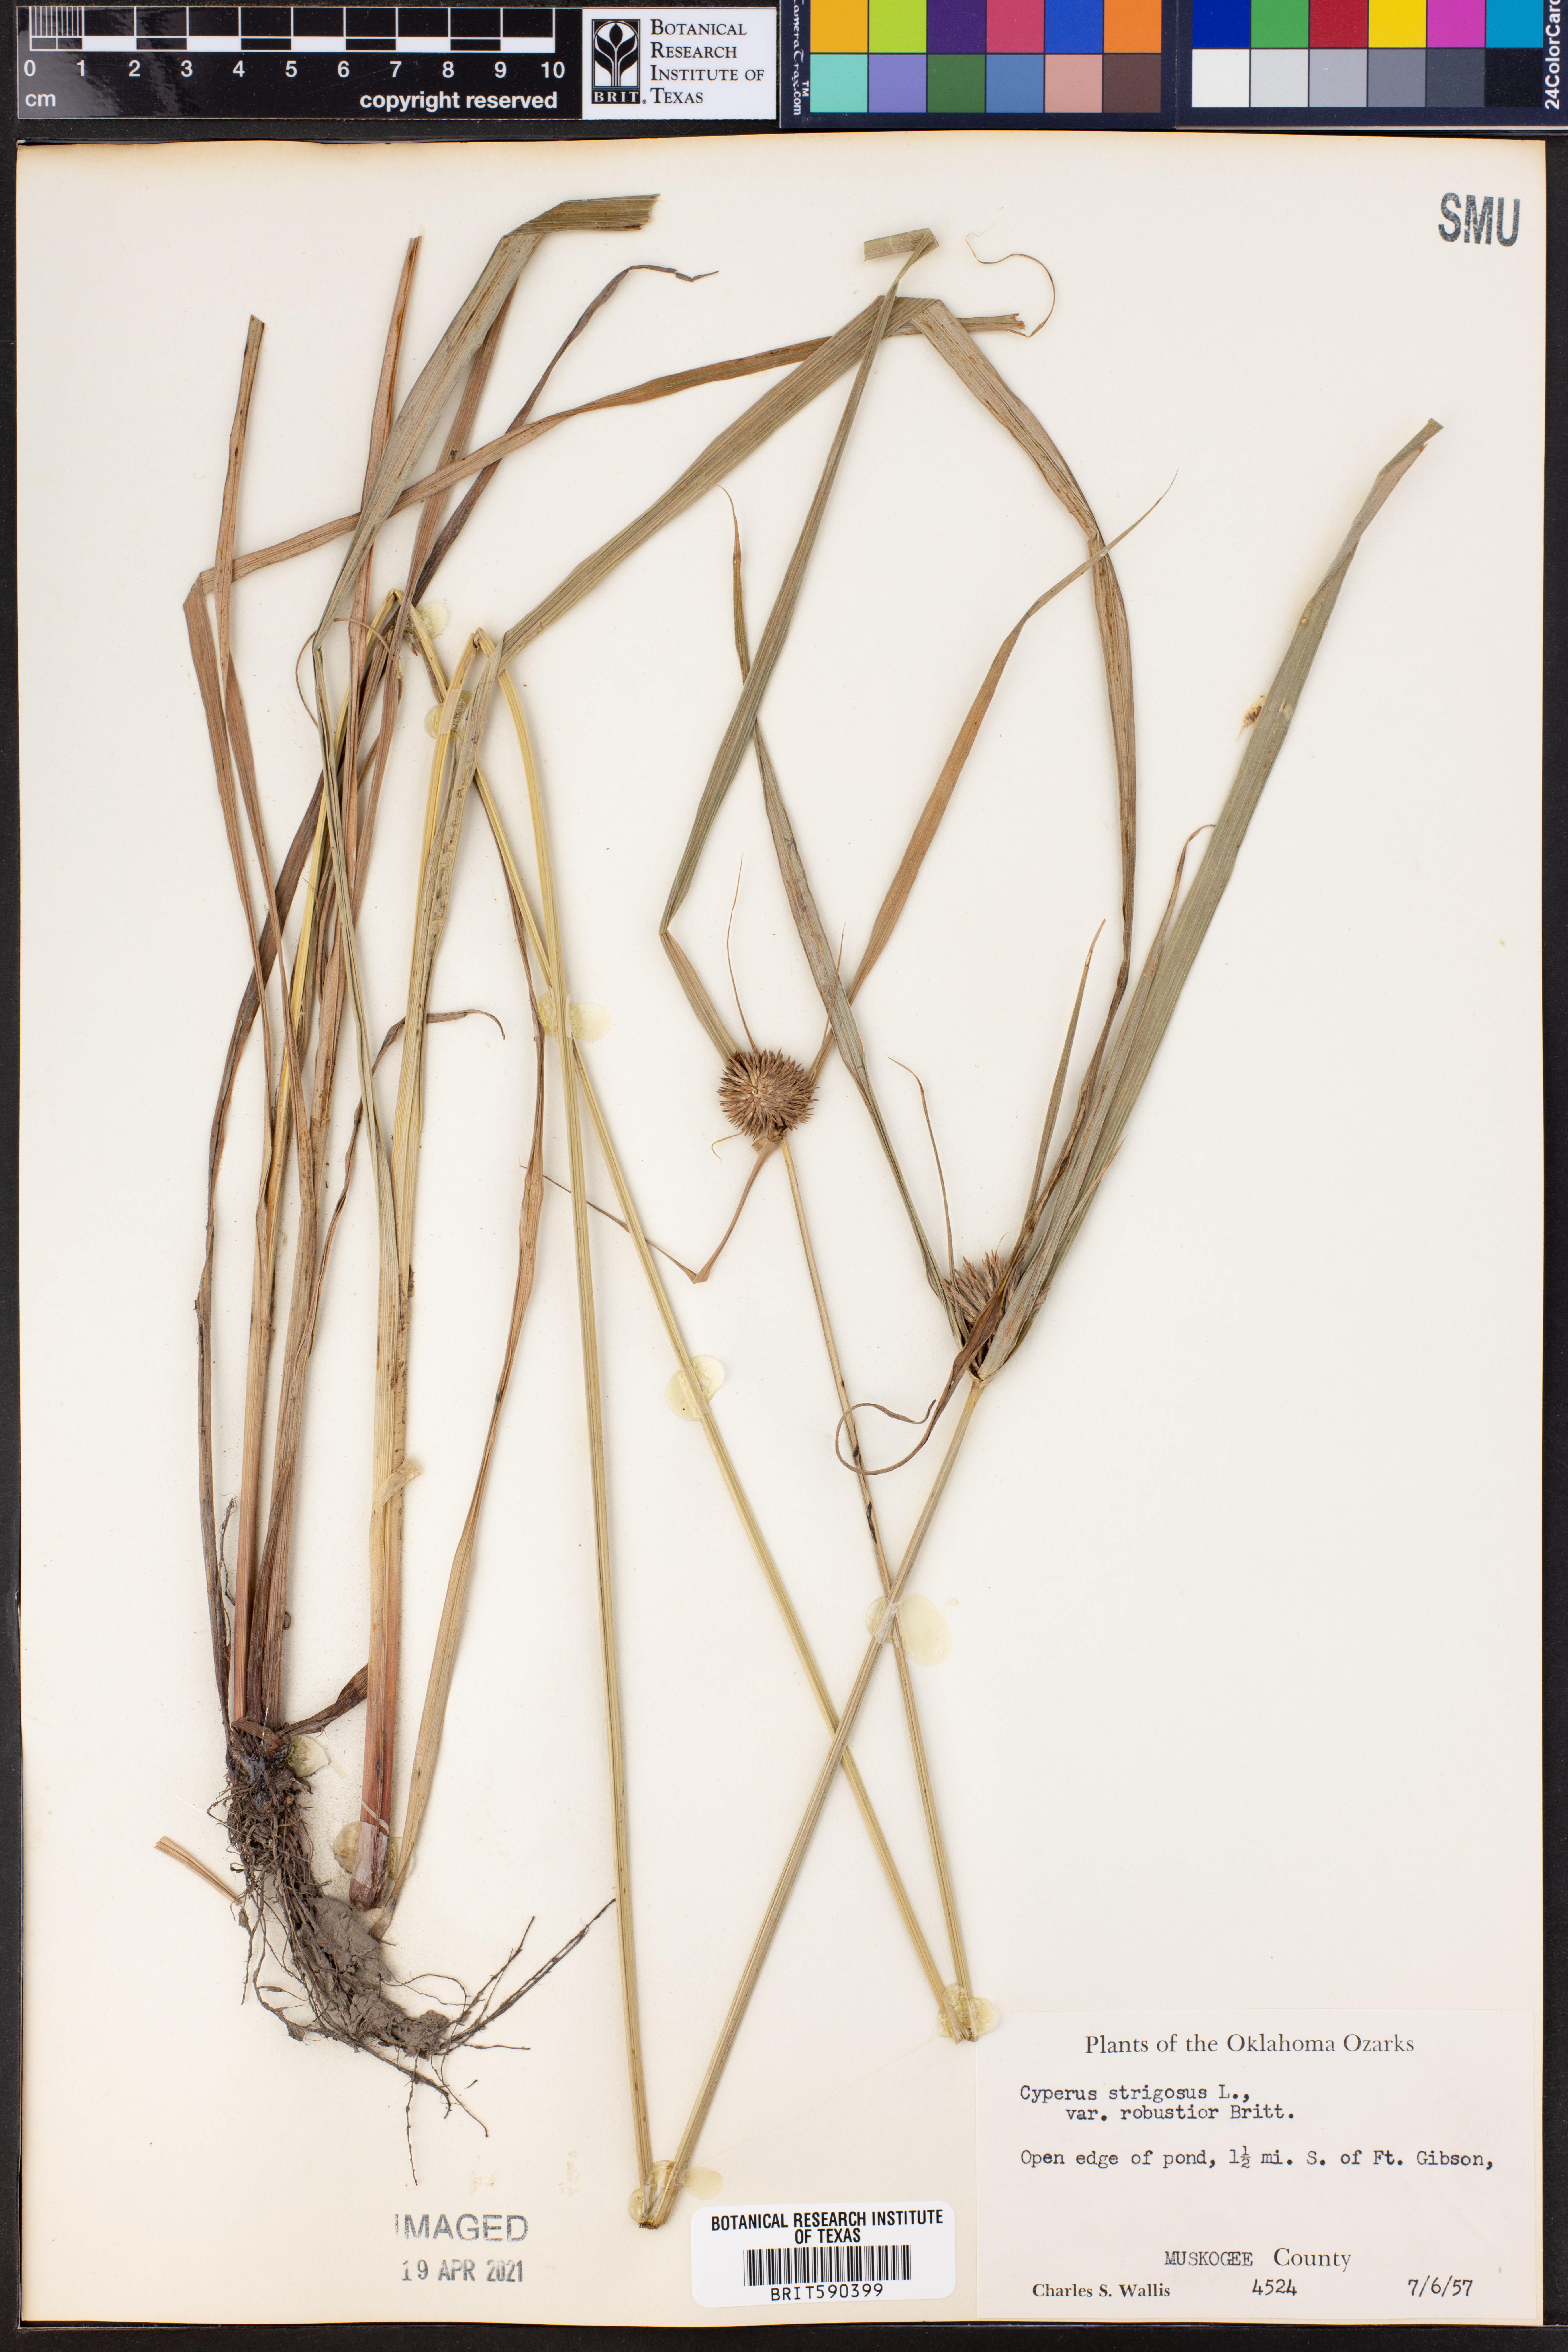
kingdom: Plantae
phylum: Tracheophyta
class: Liliopsida
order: Poales
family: Cyperaceae
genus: Cyperus
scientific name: Cyperus strigosus
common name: False nutsedge
